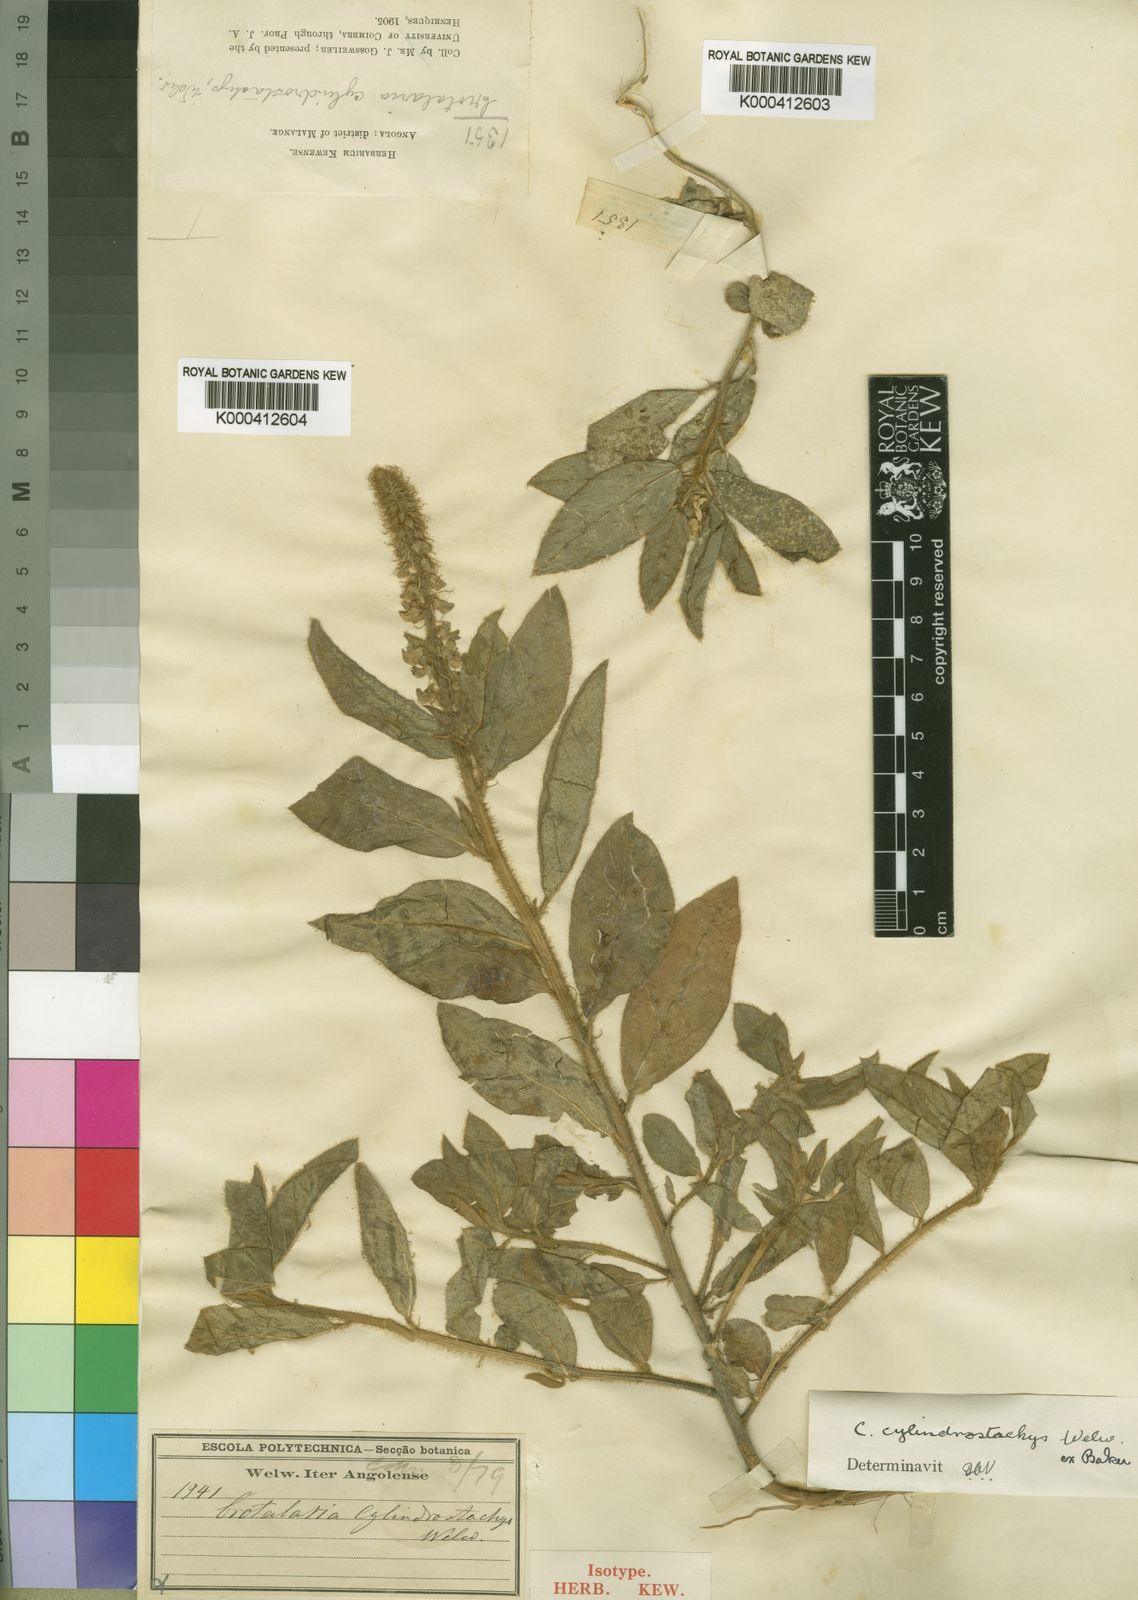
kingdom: Plantae
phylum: Tracheophyta
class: Magnoliopsida
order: Fabales
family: Fabaceae
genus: Crotalaria
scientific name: Crotalaria cylindrostachys
